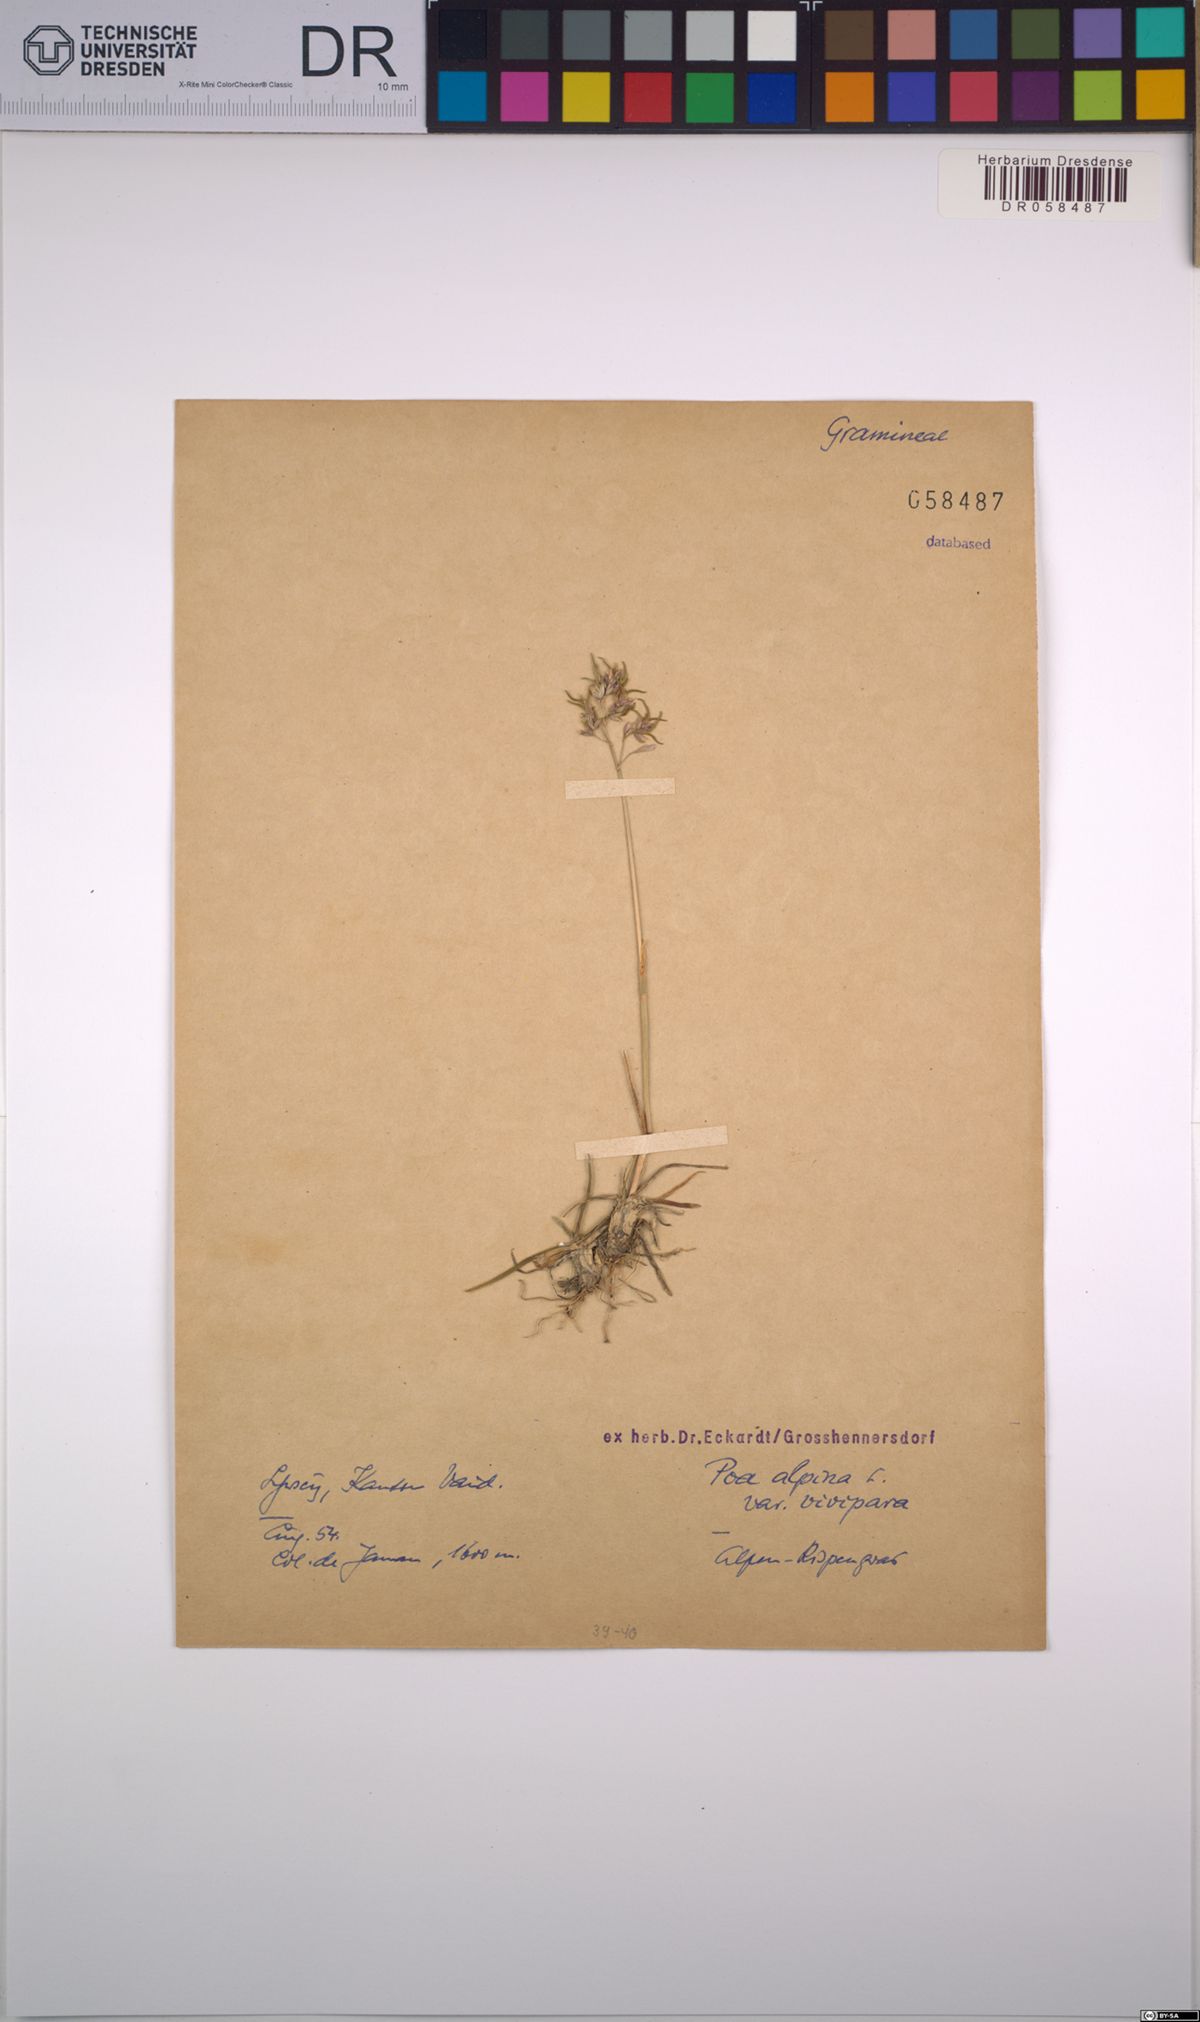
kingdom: Plantae
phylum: Tracheophyta
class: Liliopsida
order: Poales
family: Poaceae
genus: Poa
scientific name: Poa alpina
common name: Alpine bluegrass
